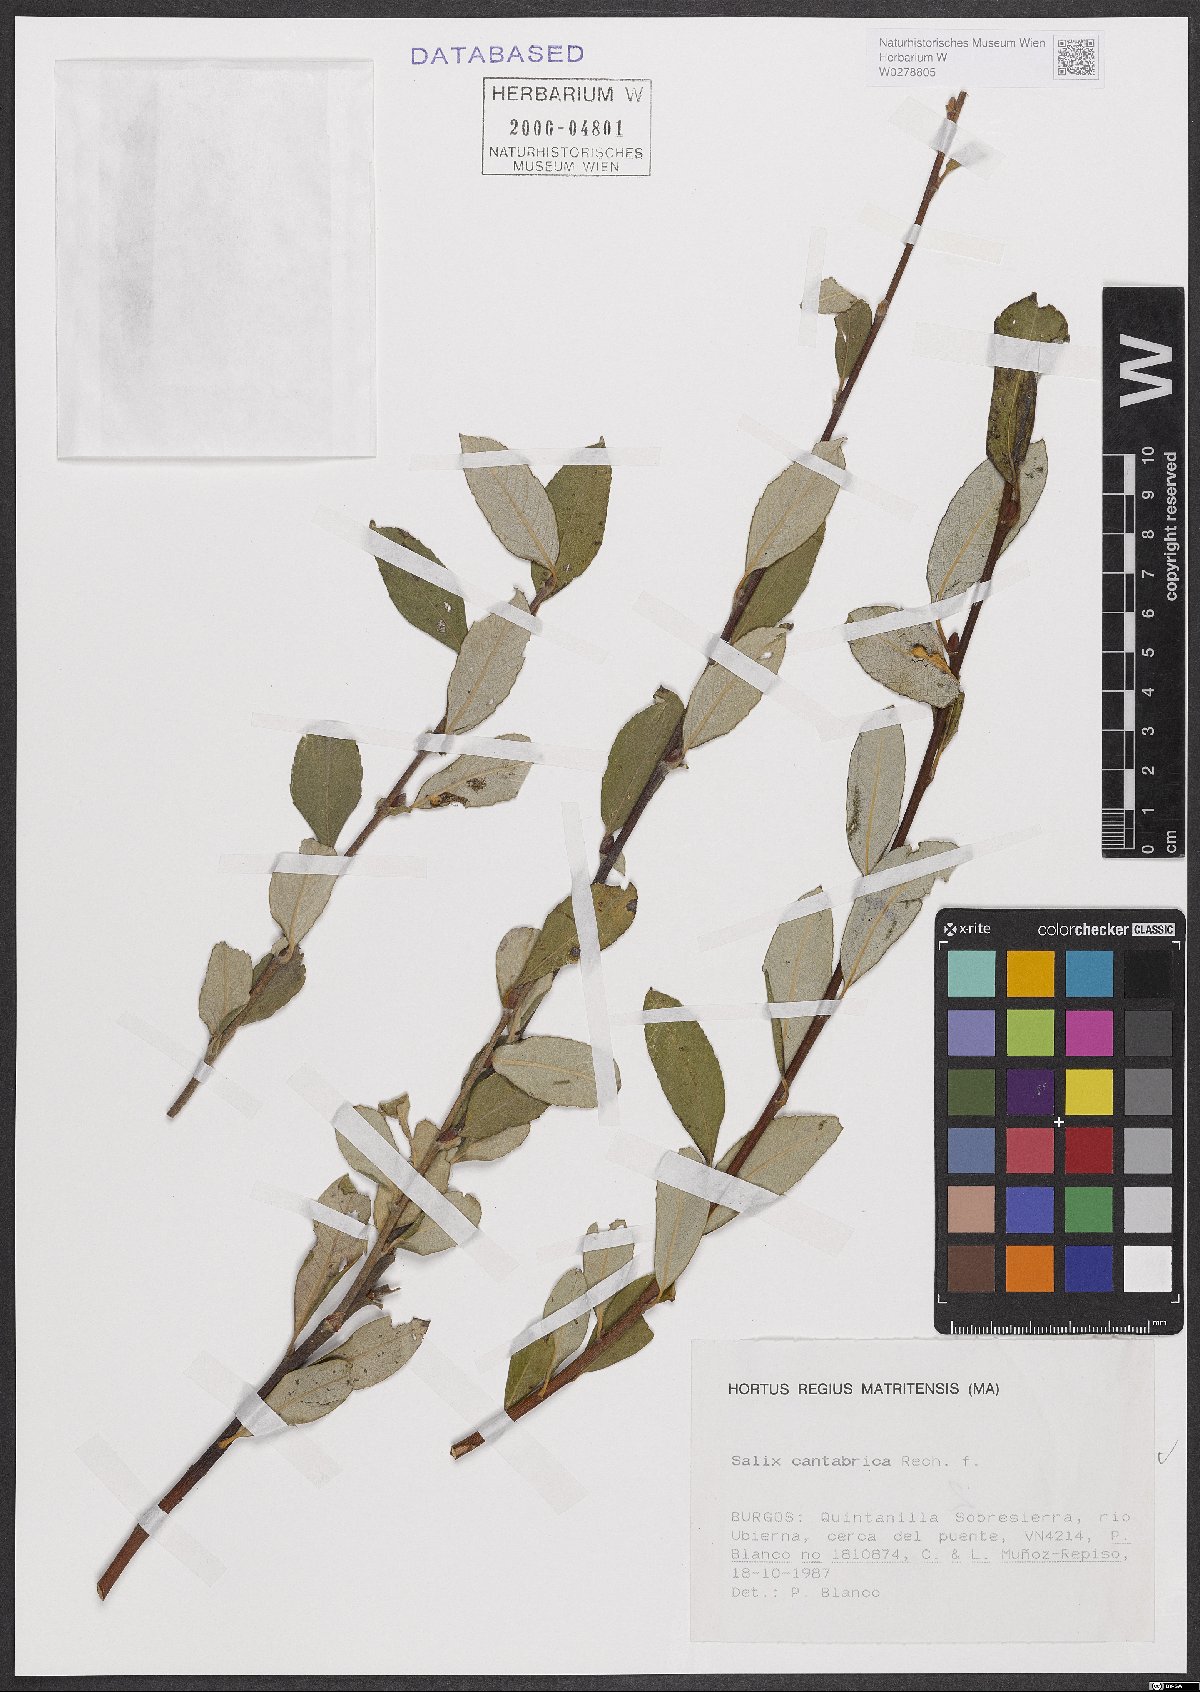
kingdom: Plantae
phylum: Tracheophyta
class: Magnoliopsida
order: Malpighiales
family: Salicaceae
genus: Salix
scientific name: Salix cantabrica
